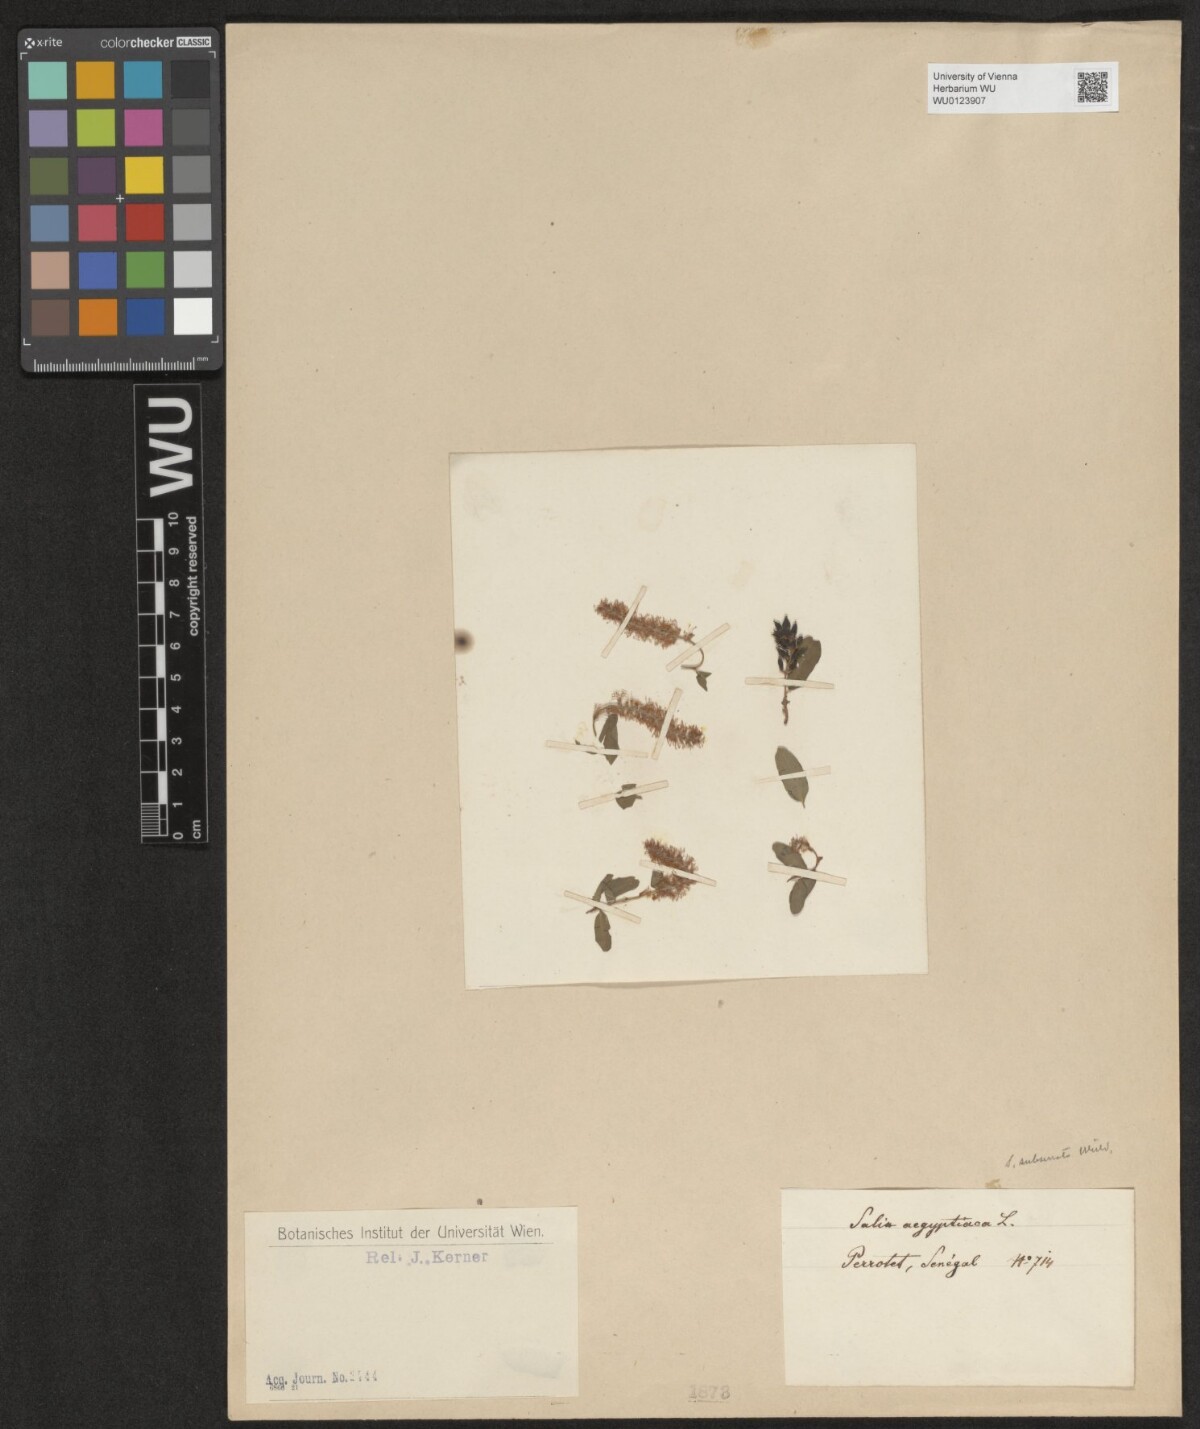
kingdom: Plantae
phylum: Tracheophyta
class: Magnoliopsida
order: Malpighiales
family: Salicaceae
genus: Salix
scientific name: Salix aegyptiaca
